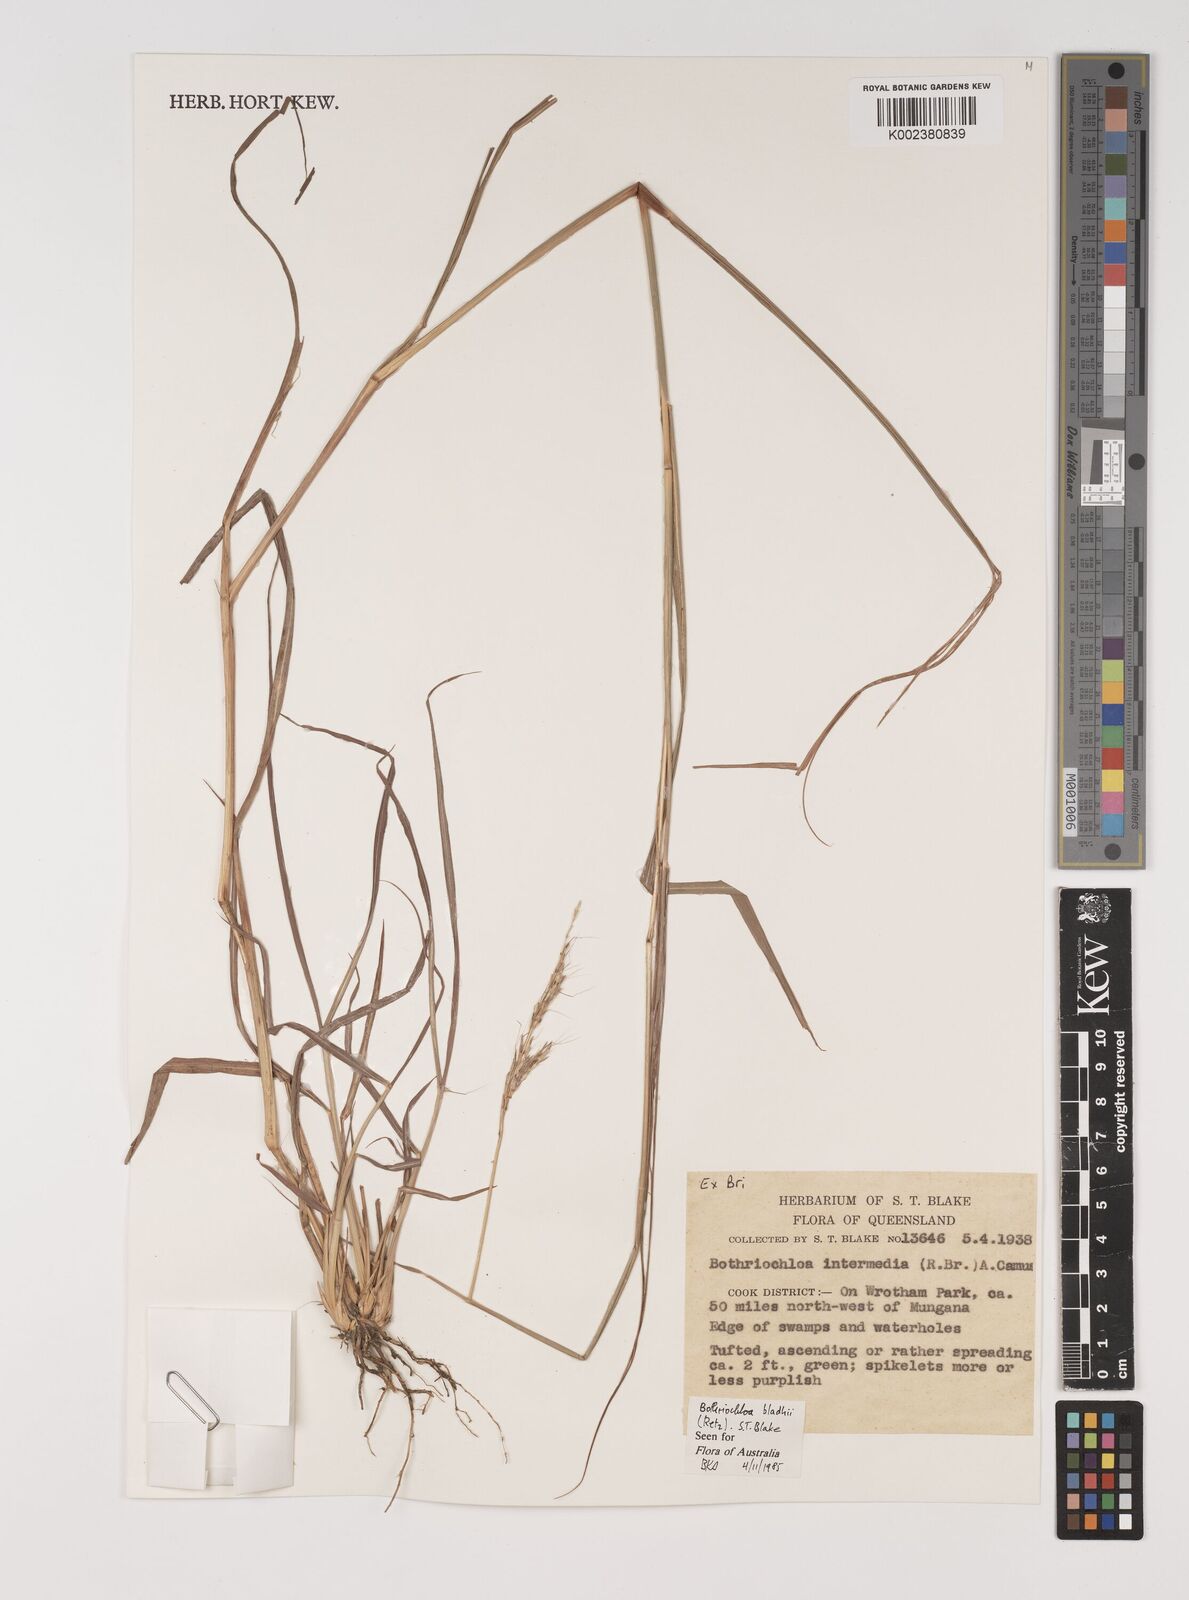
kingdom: Plantae
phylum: Tracheophyta
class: Liliopsida
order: Poales
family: Poaceae
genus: Bothriochloa
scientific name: Bothriochloa bladhii
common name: Caucasian bluestem
